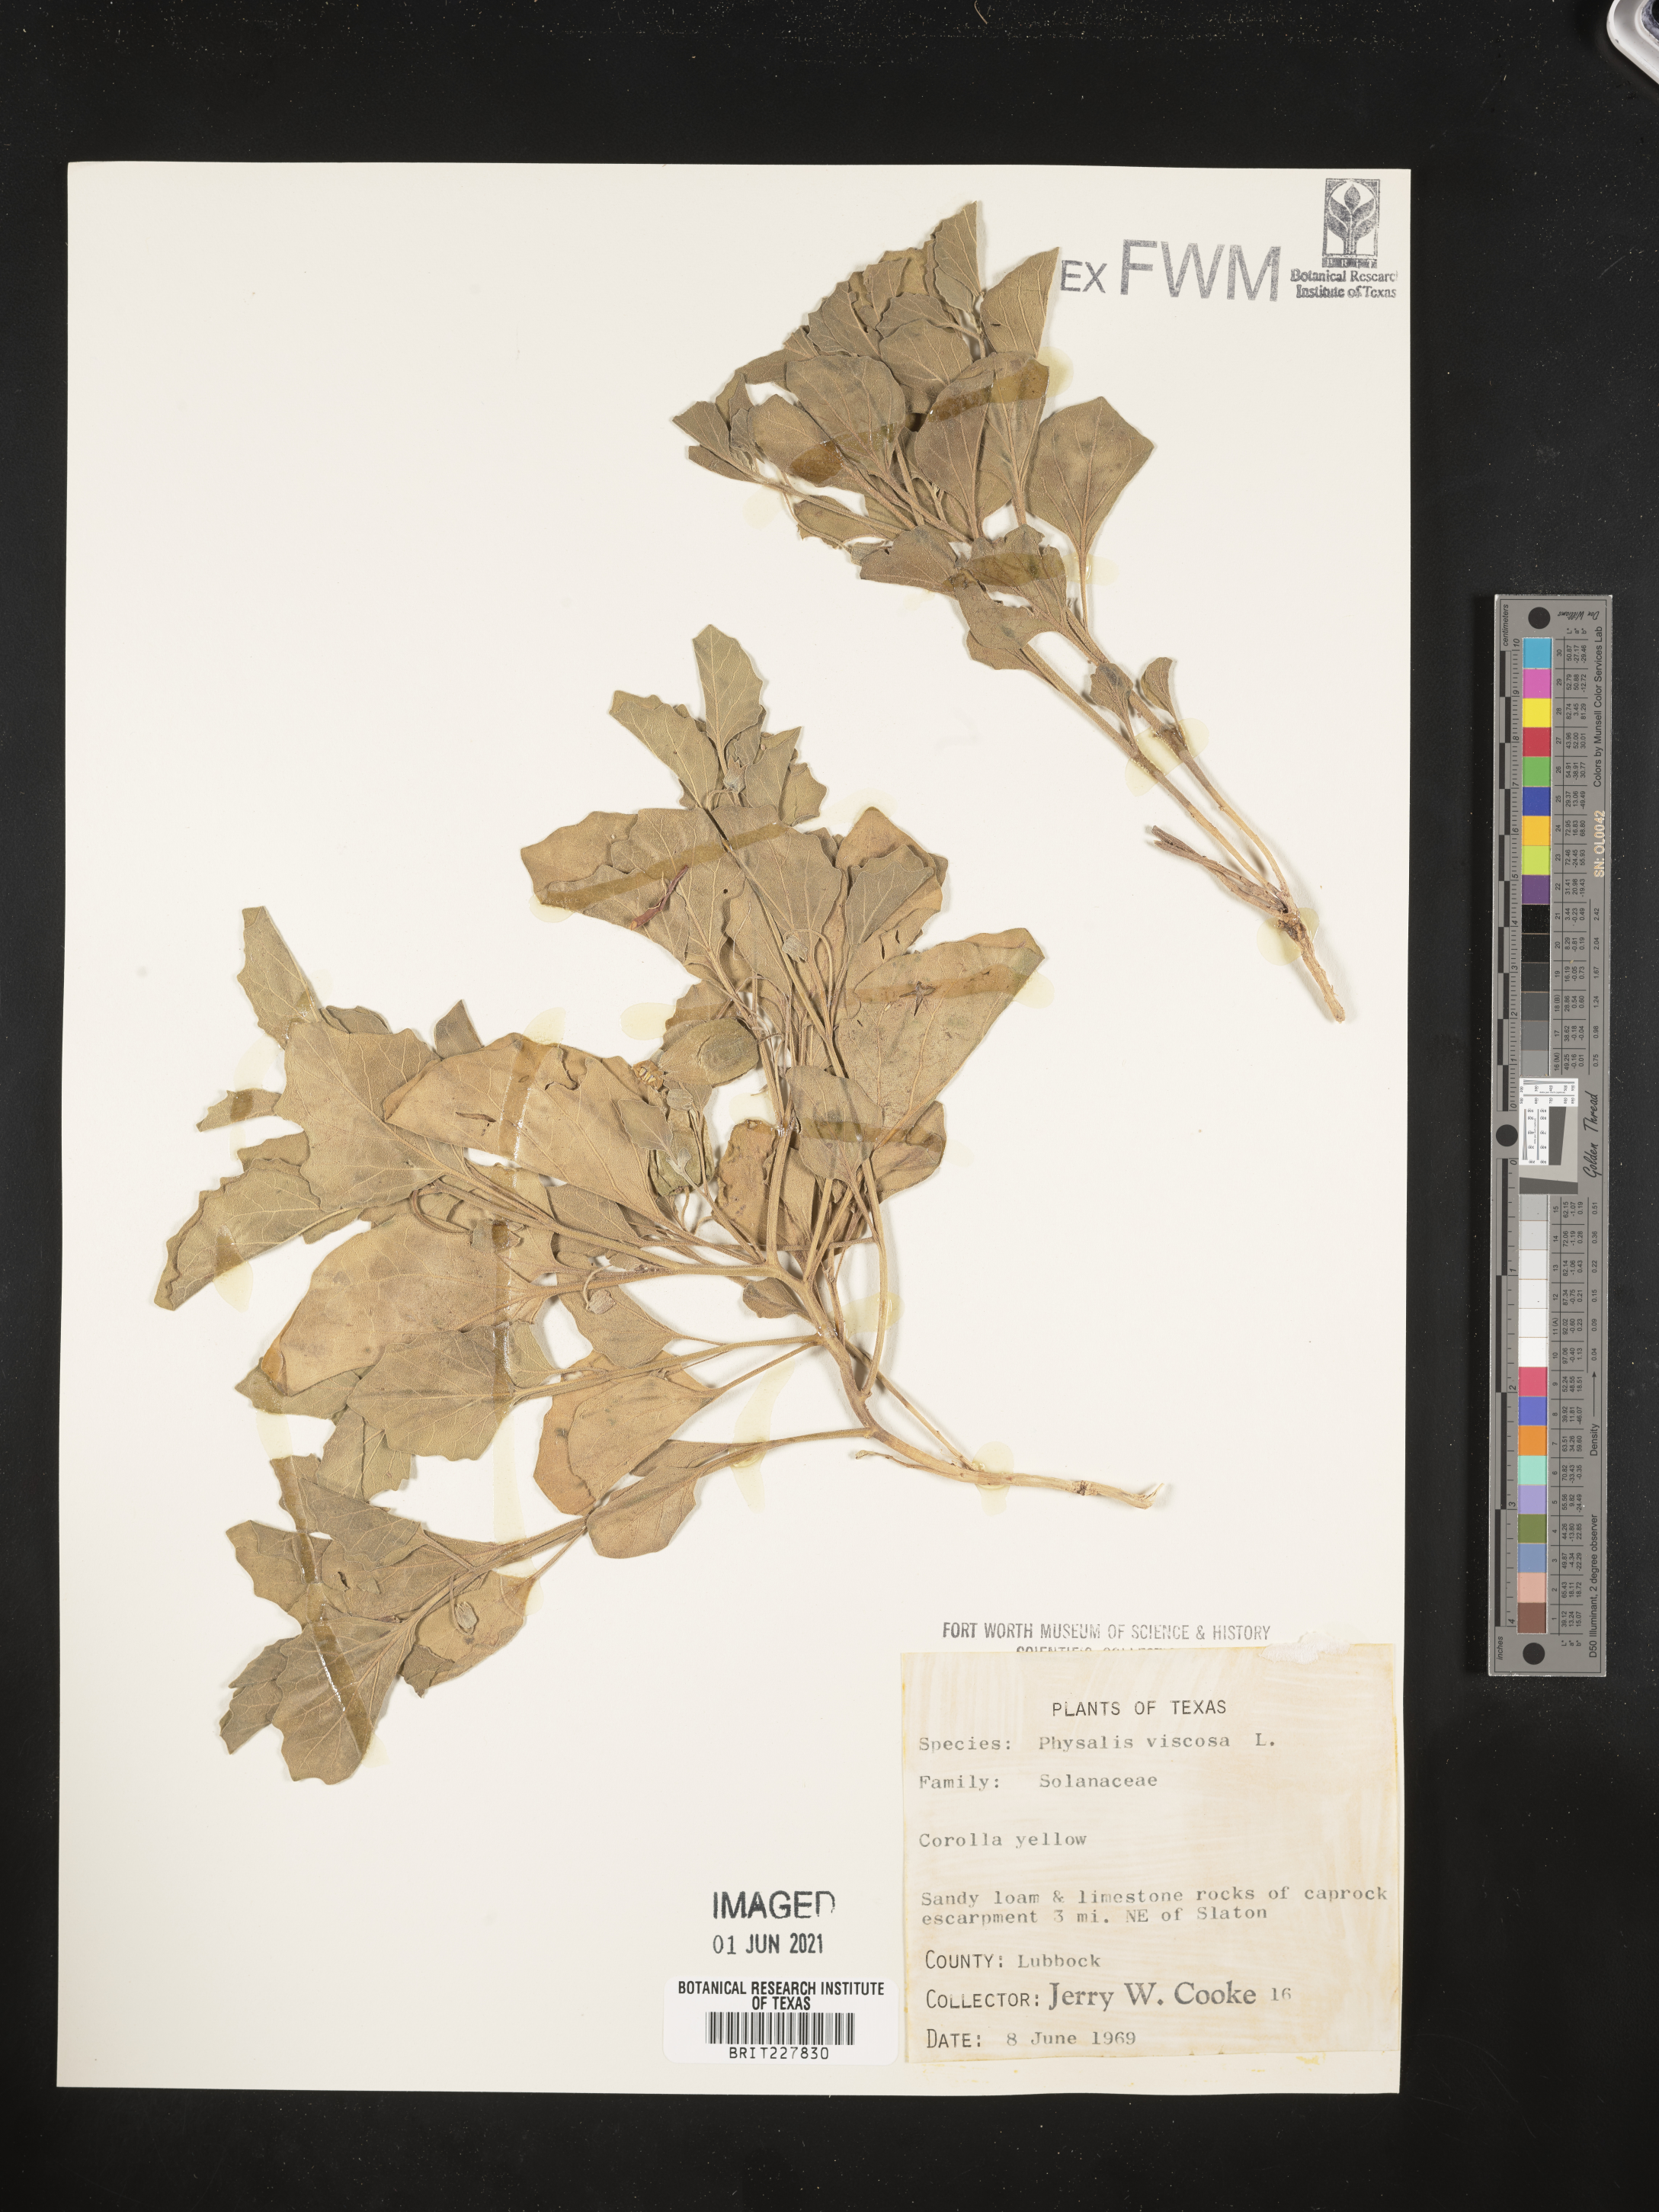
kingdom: Plantae
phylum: Tracheophyta
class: Magnoliopsida
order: Solanales
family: Solanaceae
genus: Physalis
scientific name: Physalis viscosa
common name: Stellate ground-cherry
